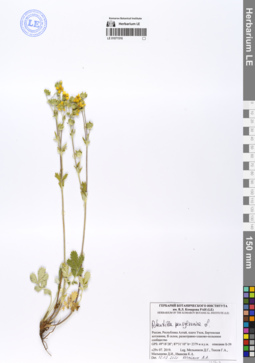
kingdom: Plantae
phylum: Tracheophyta
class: Magnoliopsida
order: Rosales
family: Rosaceae
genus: Potentilla
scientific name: Potentilla pensylvanica
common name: Pennsylvania cinquefoil
